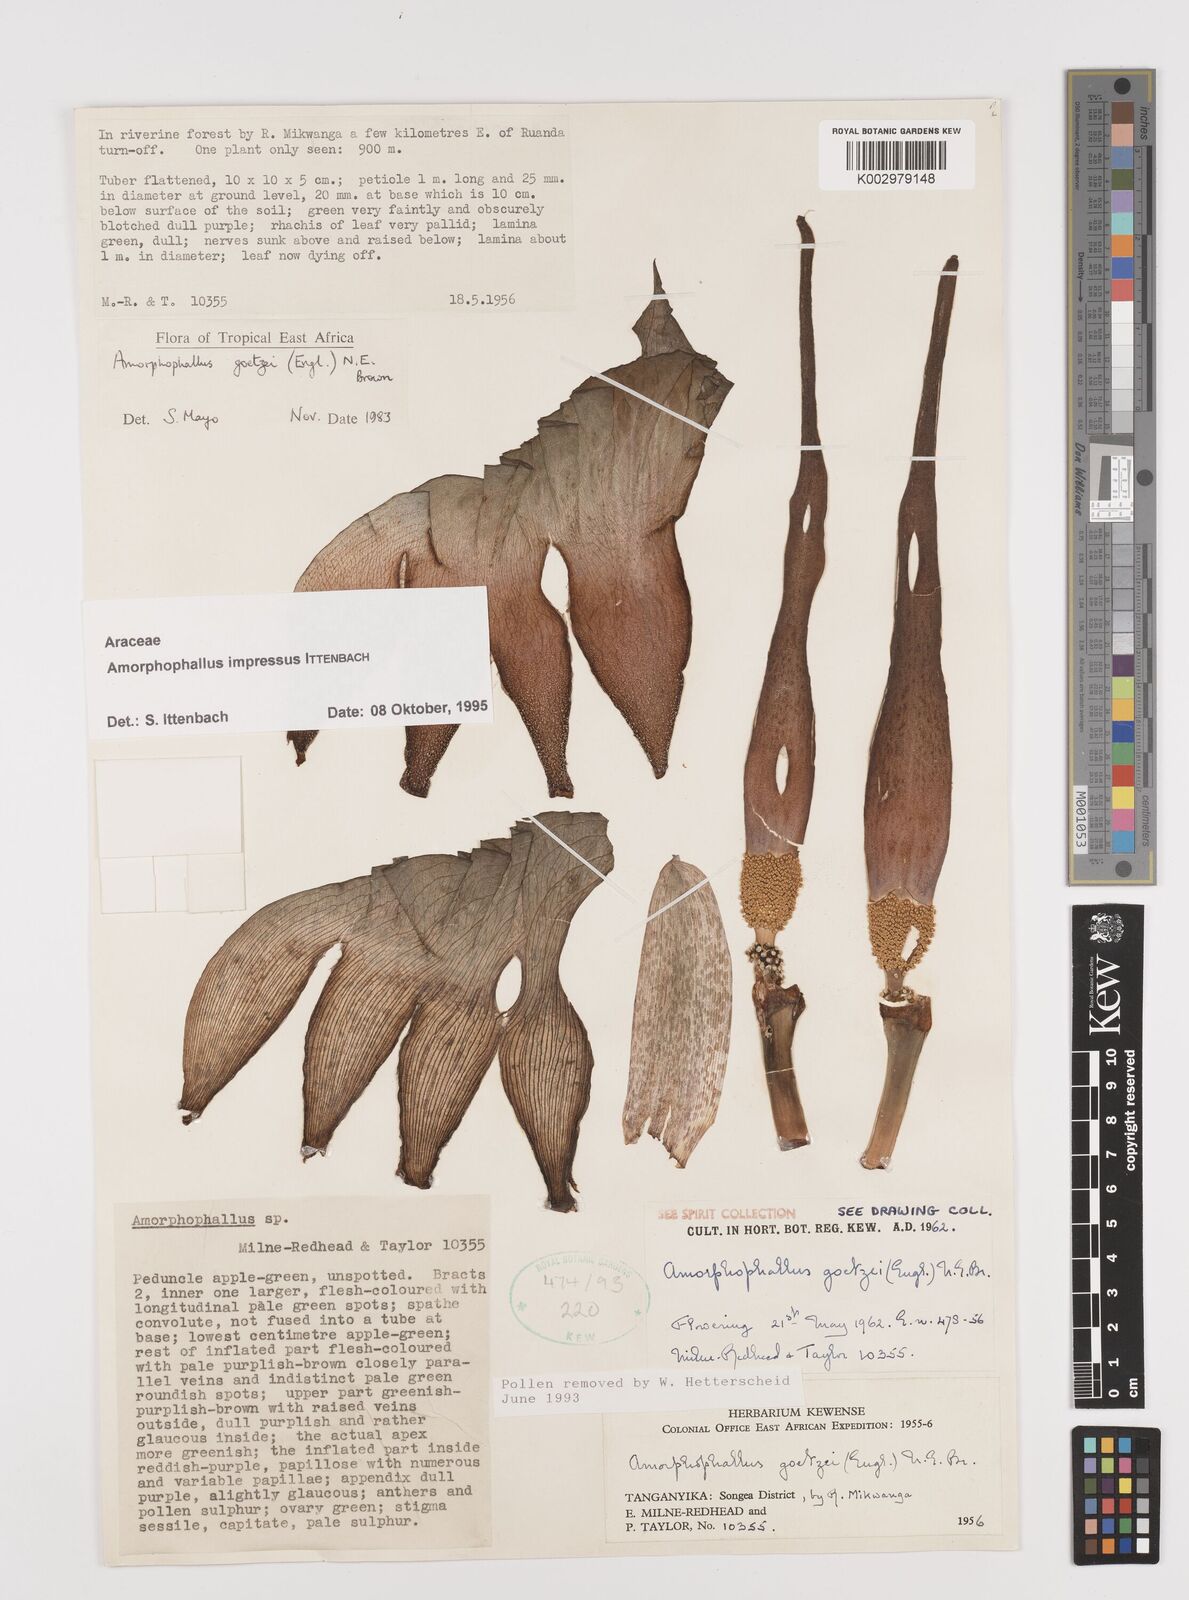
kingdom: Plantae
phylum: Tracheophyta
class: Liliopsida
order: Alismatales
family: Araceae
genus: Amorphophallus
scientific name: Amorphophallus impressus
